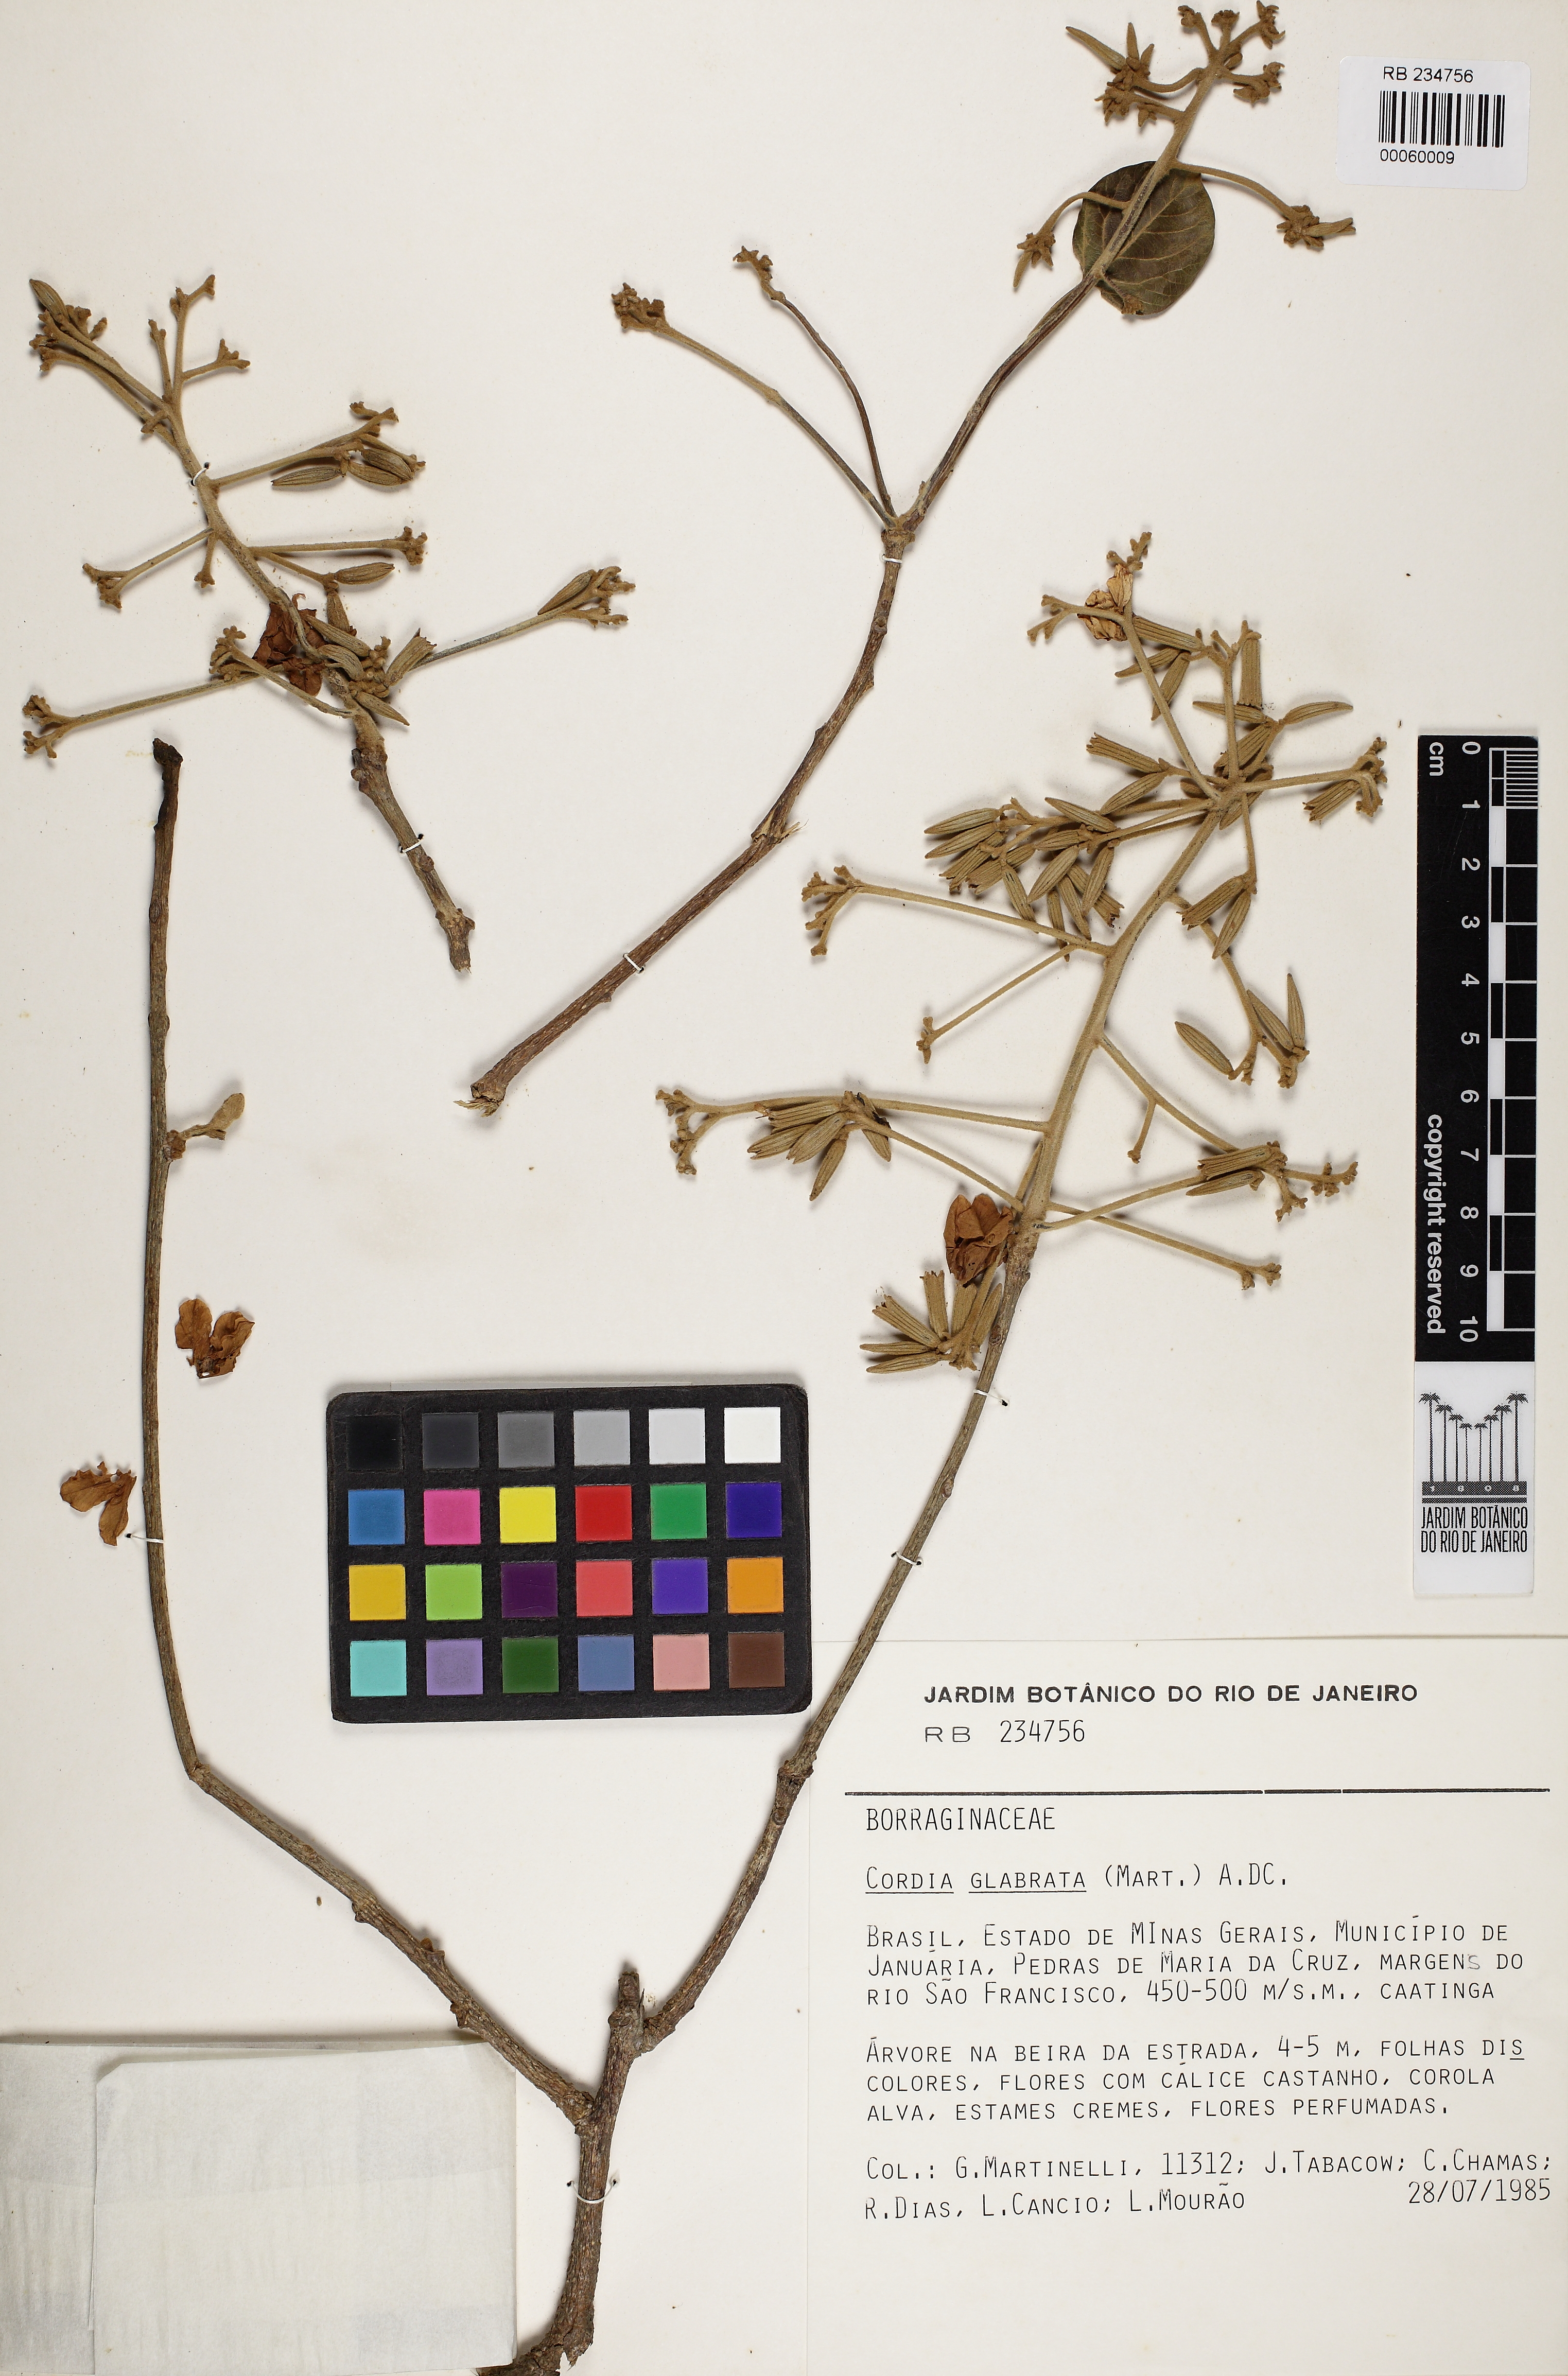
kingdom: Plantae
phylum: Tracheophyta
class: Magnoliopsida
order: Boraginales
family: Cordiaceae
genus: Cordia
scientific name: Cordia glabrata
